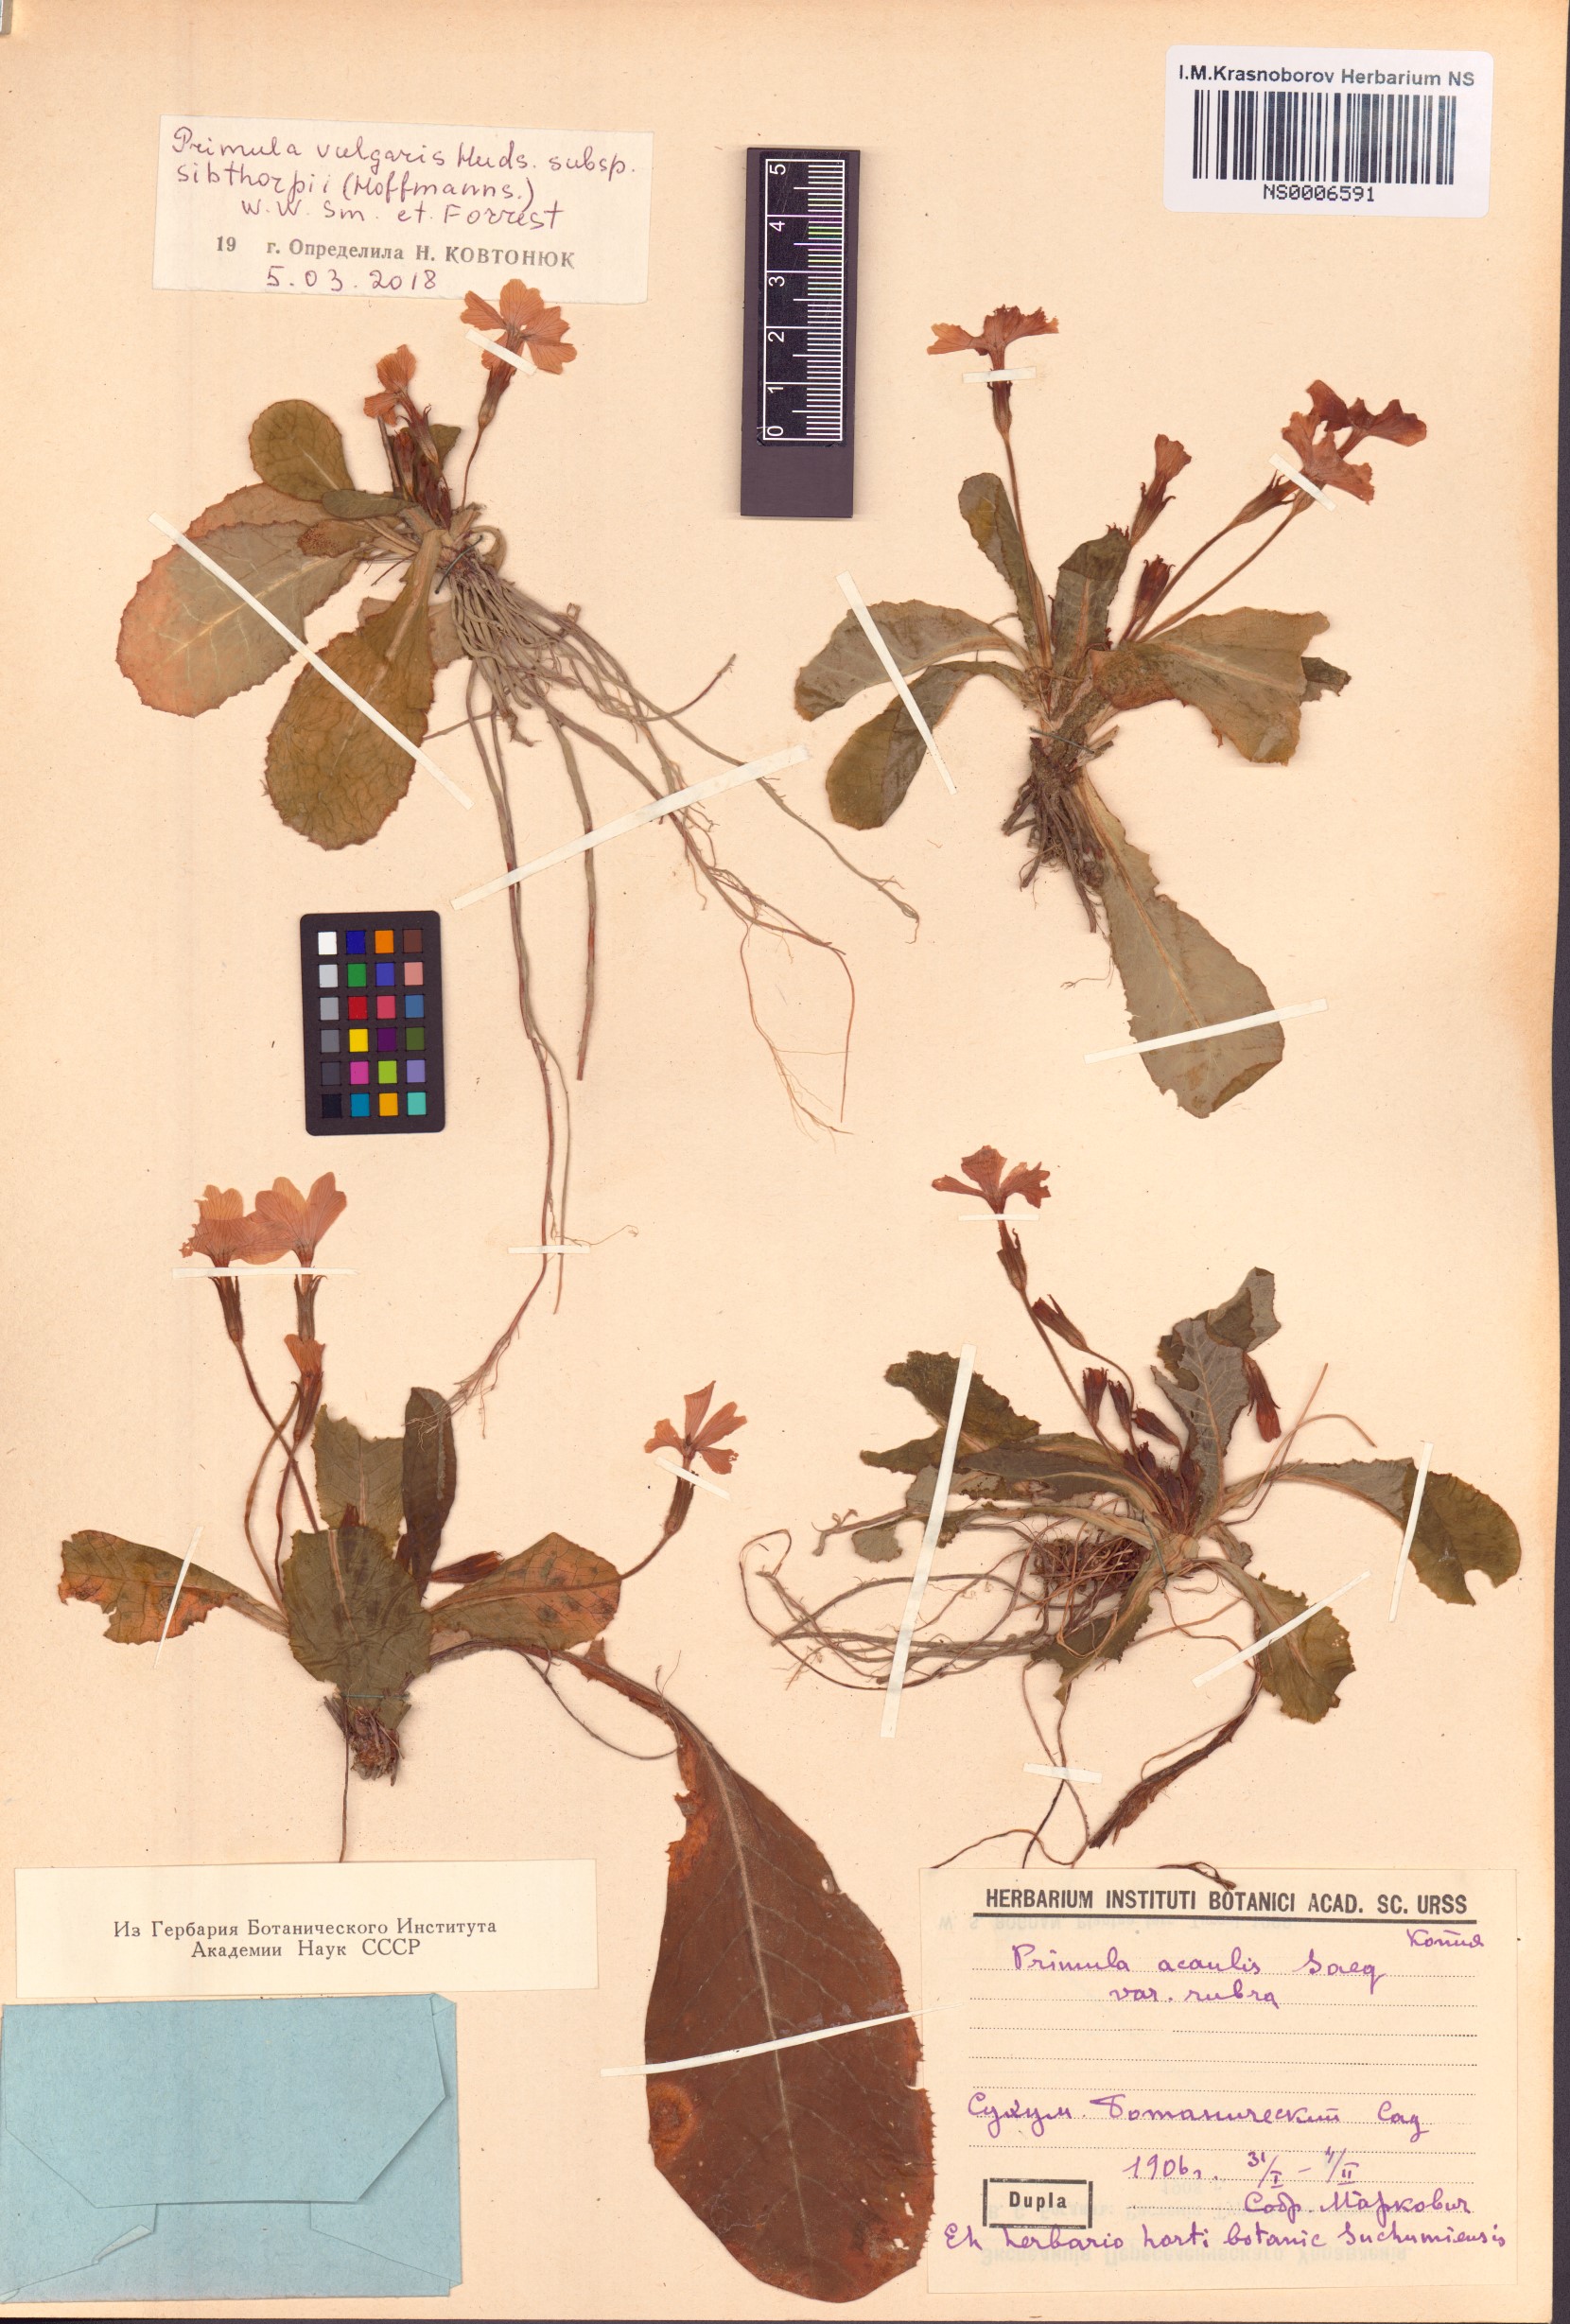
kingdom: Plantae
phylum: Tracheophyta
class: Magnoliopsida
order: Ericales
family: Primulaceae
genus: Primula
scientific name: Primula vulgaris
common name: Primrose
